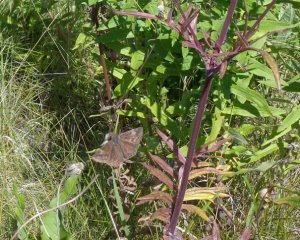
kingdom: Animalia
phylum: Arthropoda
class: Insecta
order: Lepidoptera
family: Hesperiidae
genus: Gesta
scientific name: Gesta
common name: Wild Indigo Duskywing
